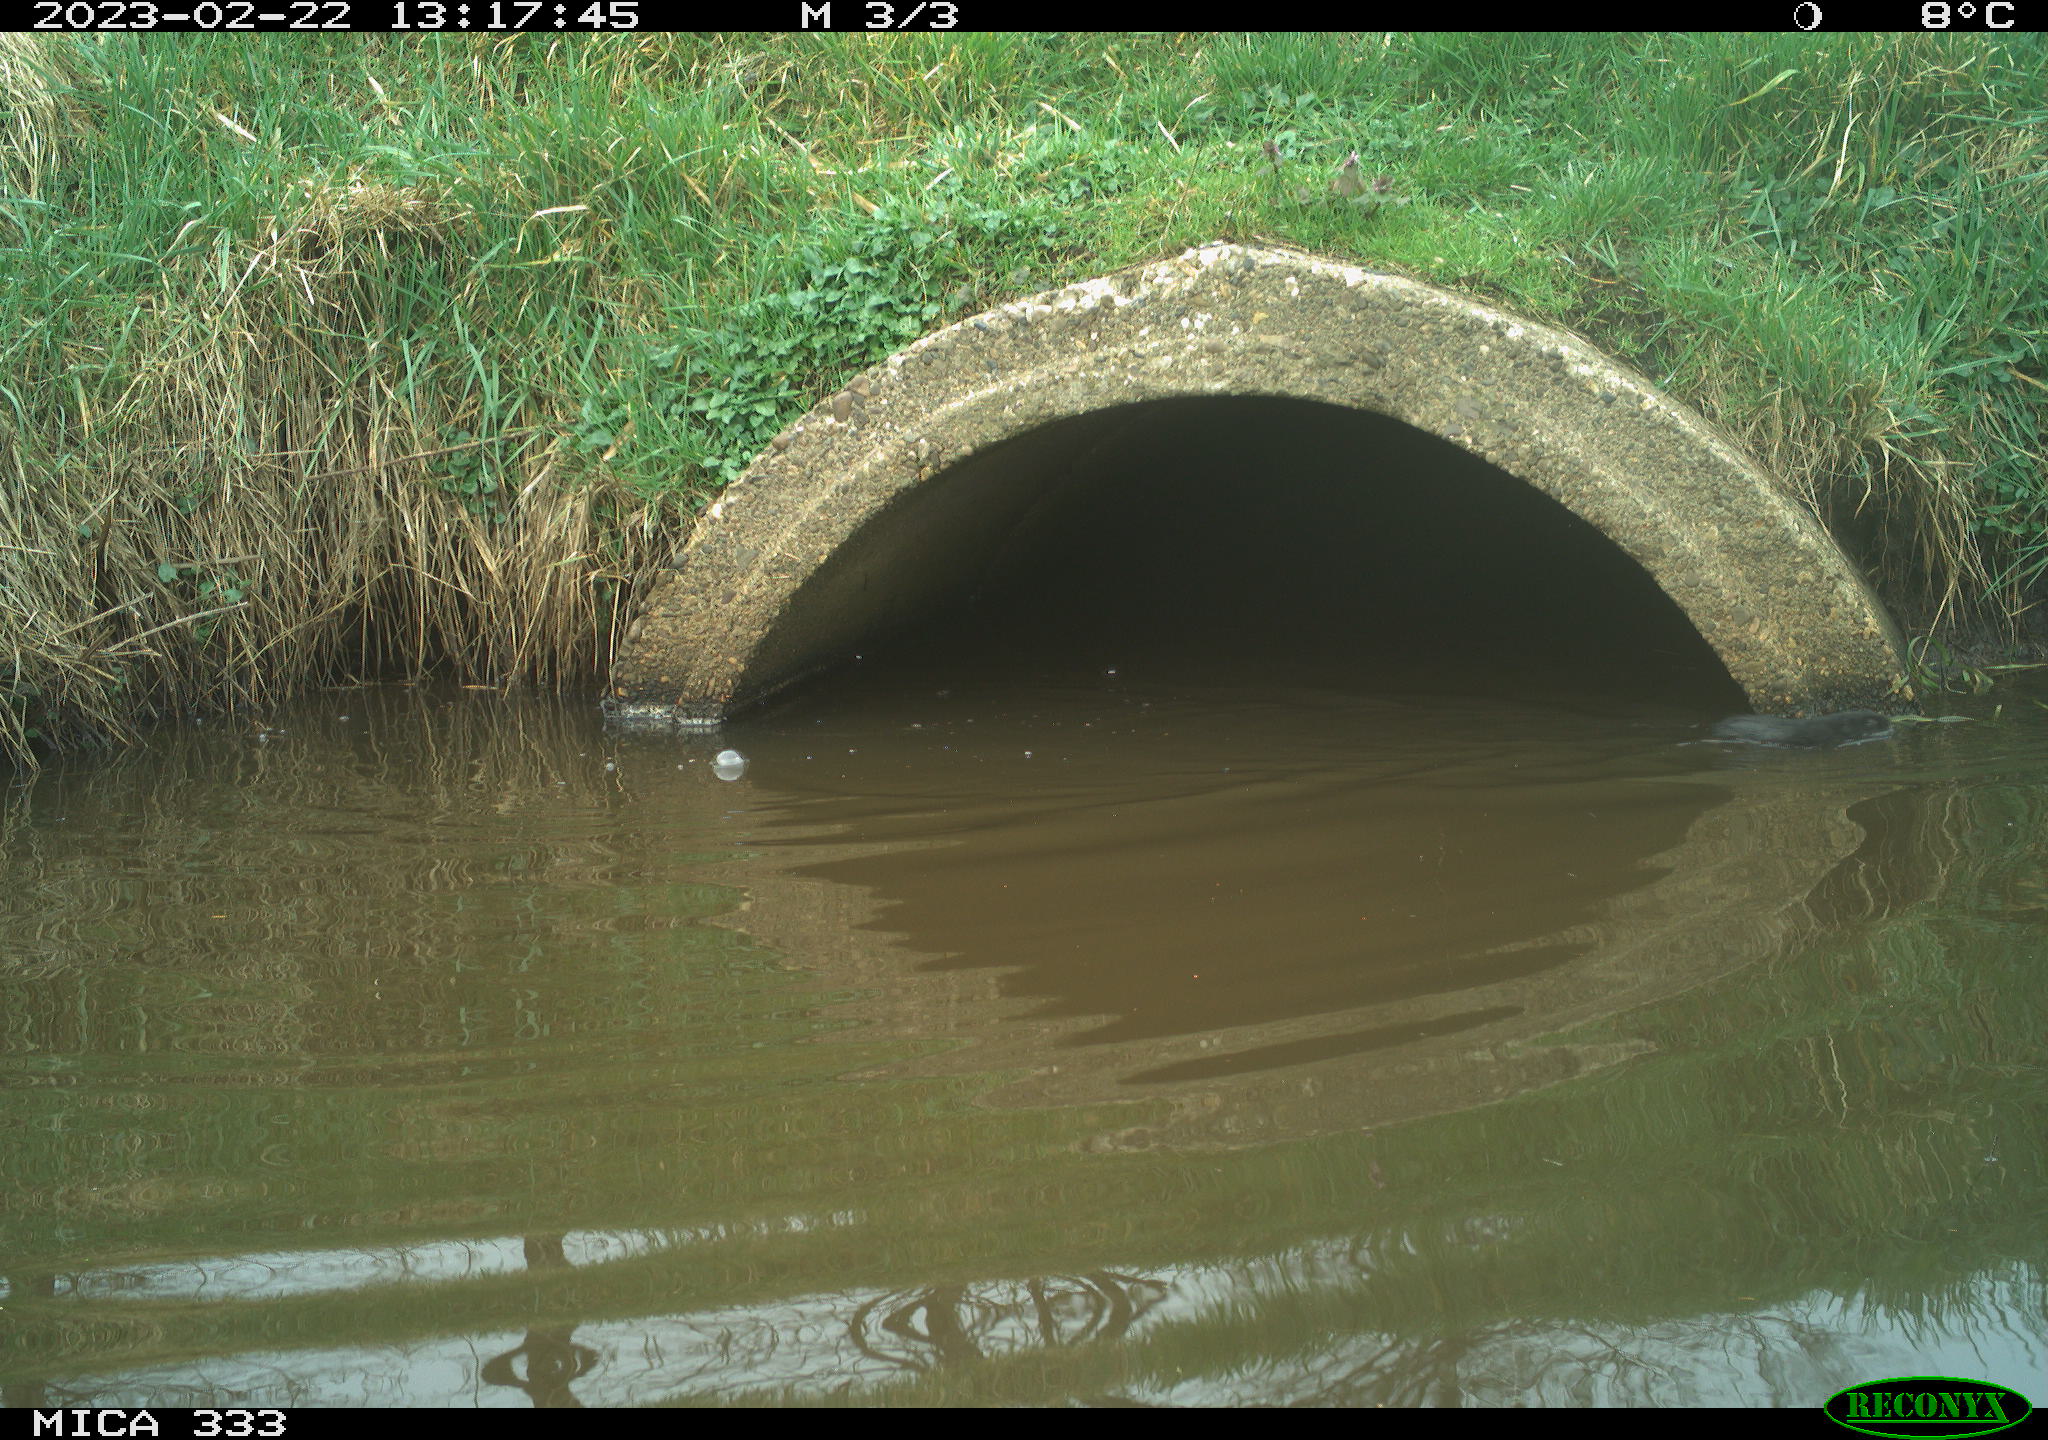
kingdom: Animalia
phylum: Chordata
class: Mammalia
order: Rodentia
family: Cricetidae
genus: Arvicola
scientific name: Arvicola amphibius
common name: European water vole
